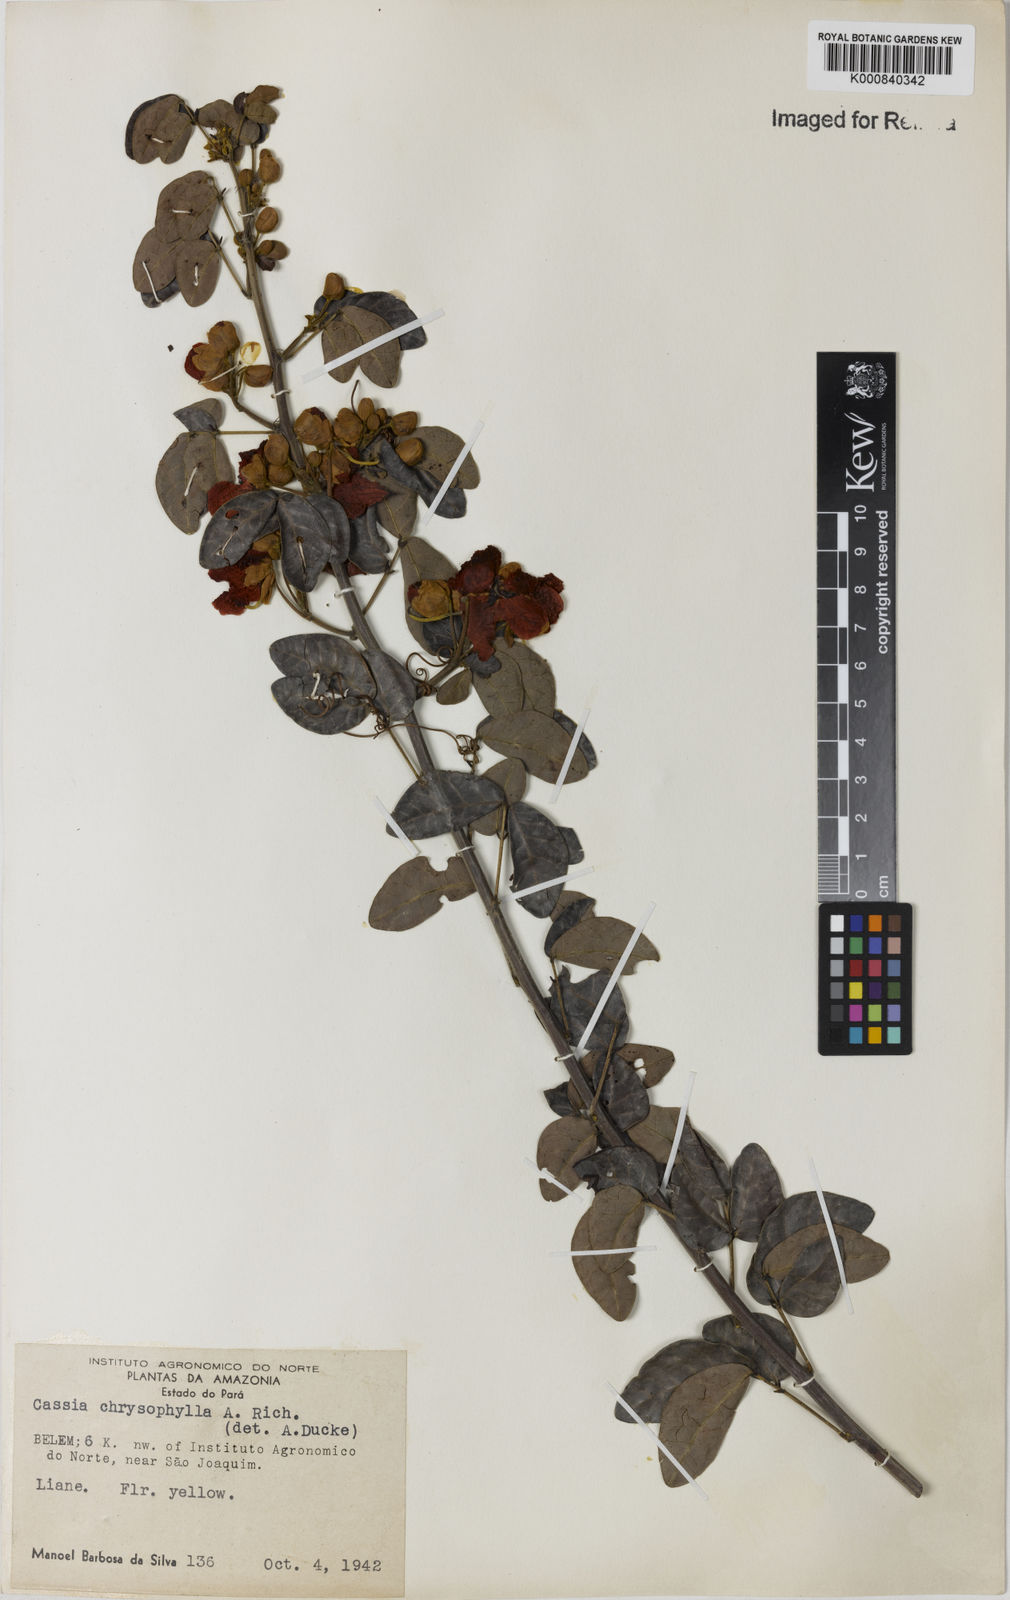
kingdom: Plantae
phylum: Tracheophyta
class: Magnoliopsida
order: Fabales
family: Fabaceae
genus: Senna
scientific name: Senna chrysocarpa
